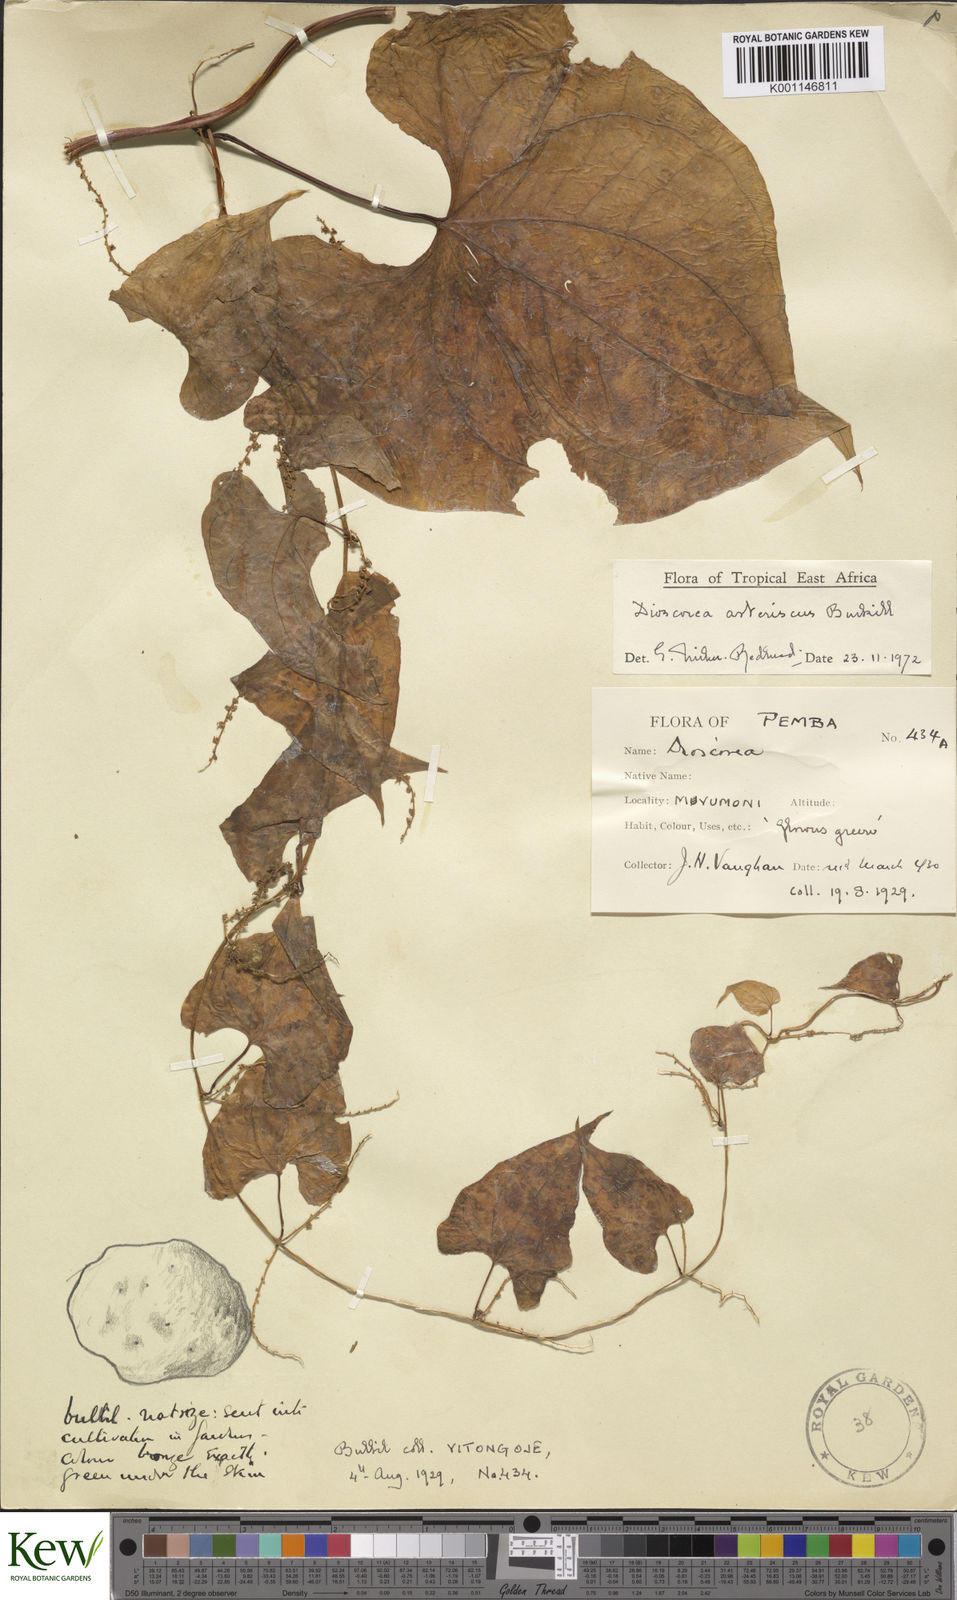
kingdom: Plantae
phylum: Tracheophyta
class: Liliopsida
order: Dioscoreales
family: Dioscoreaceae
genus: Dioscorea
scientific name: Dioscorea asteriscus
